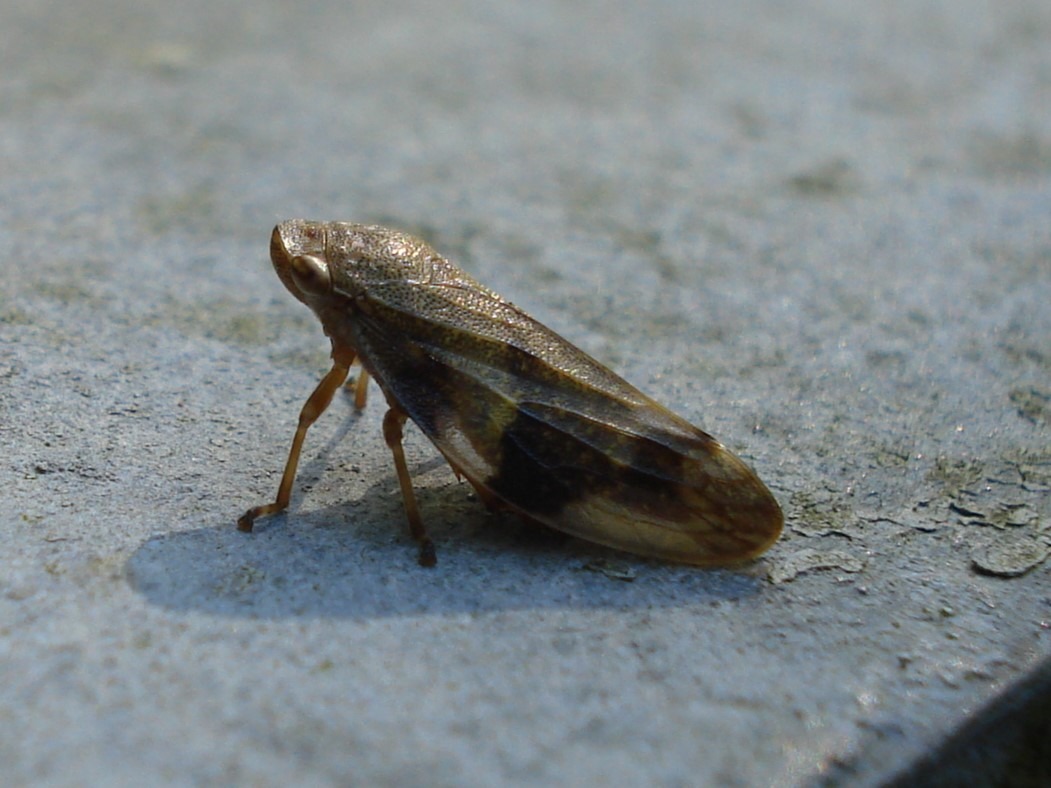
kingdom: Animalia
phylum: Arthropoda
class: Insecta
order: Hemiptera
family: Aphrophoridae
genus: Aphrophora
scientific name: Aphrophora alni
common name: Stor skumcikade
